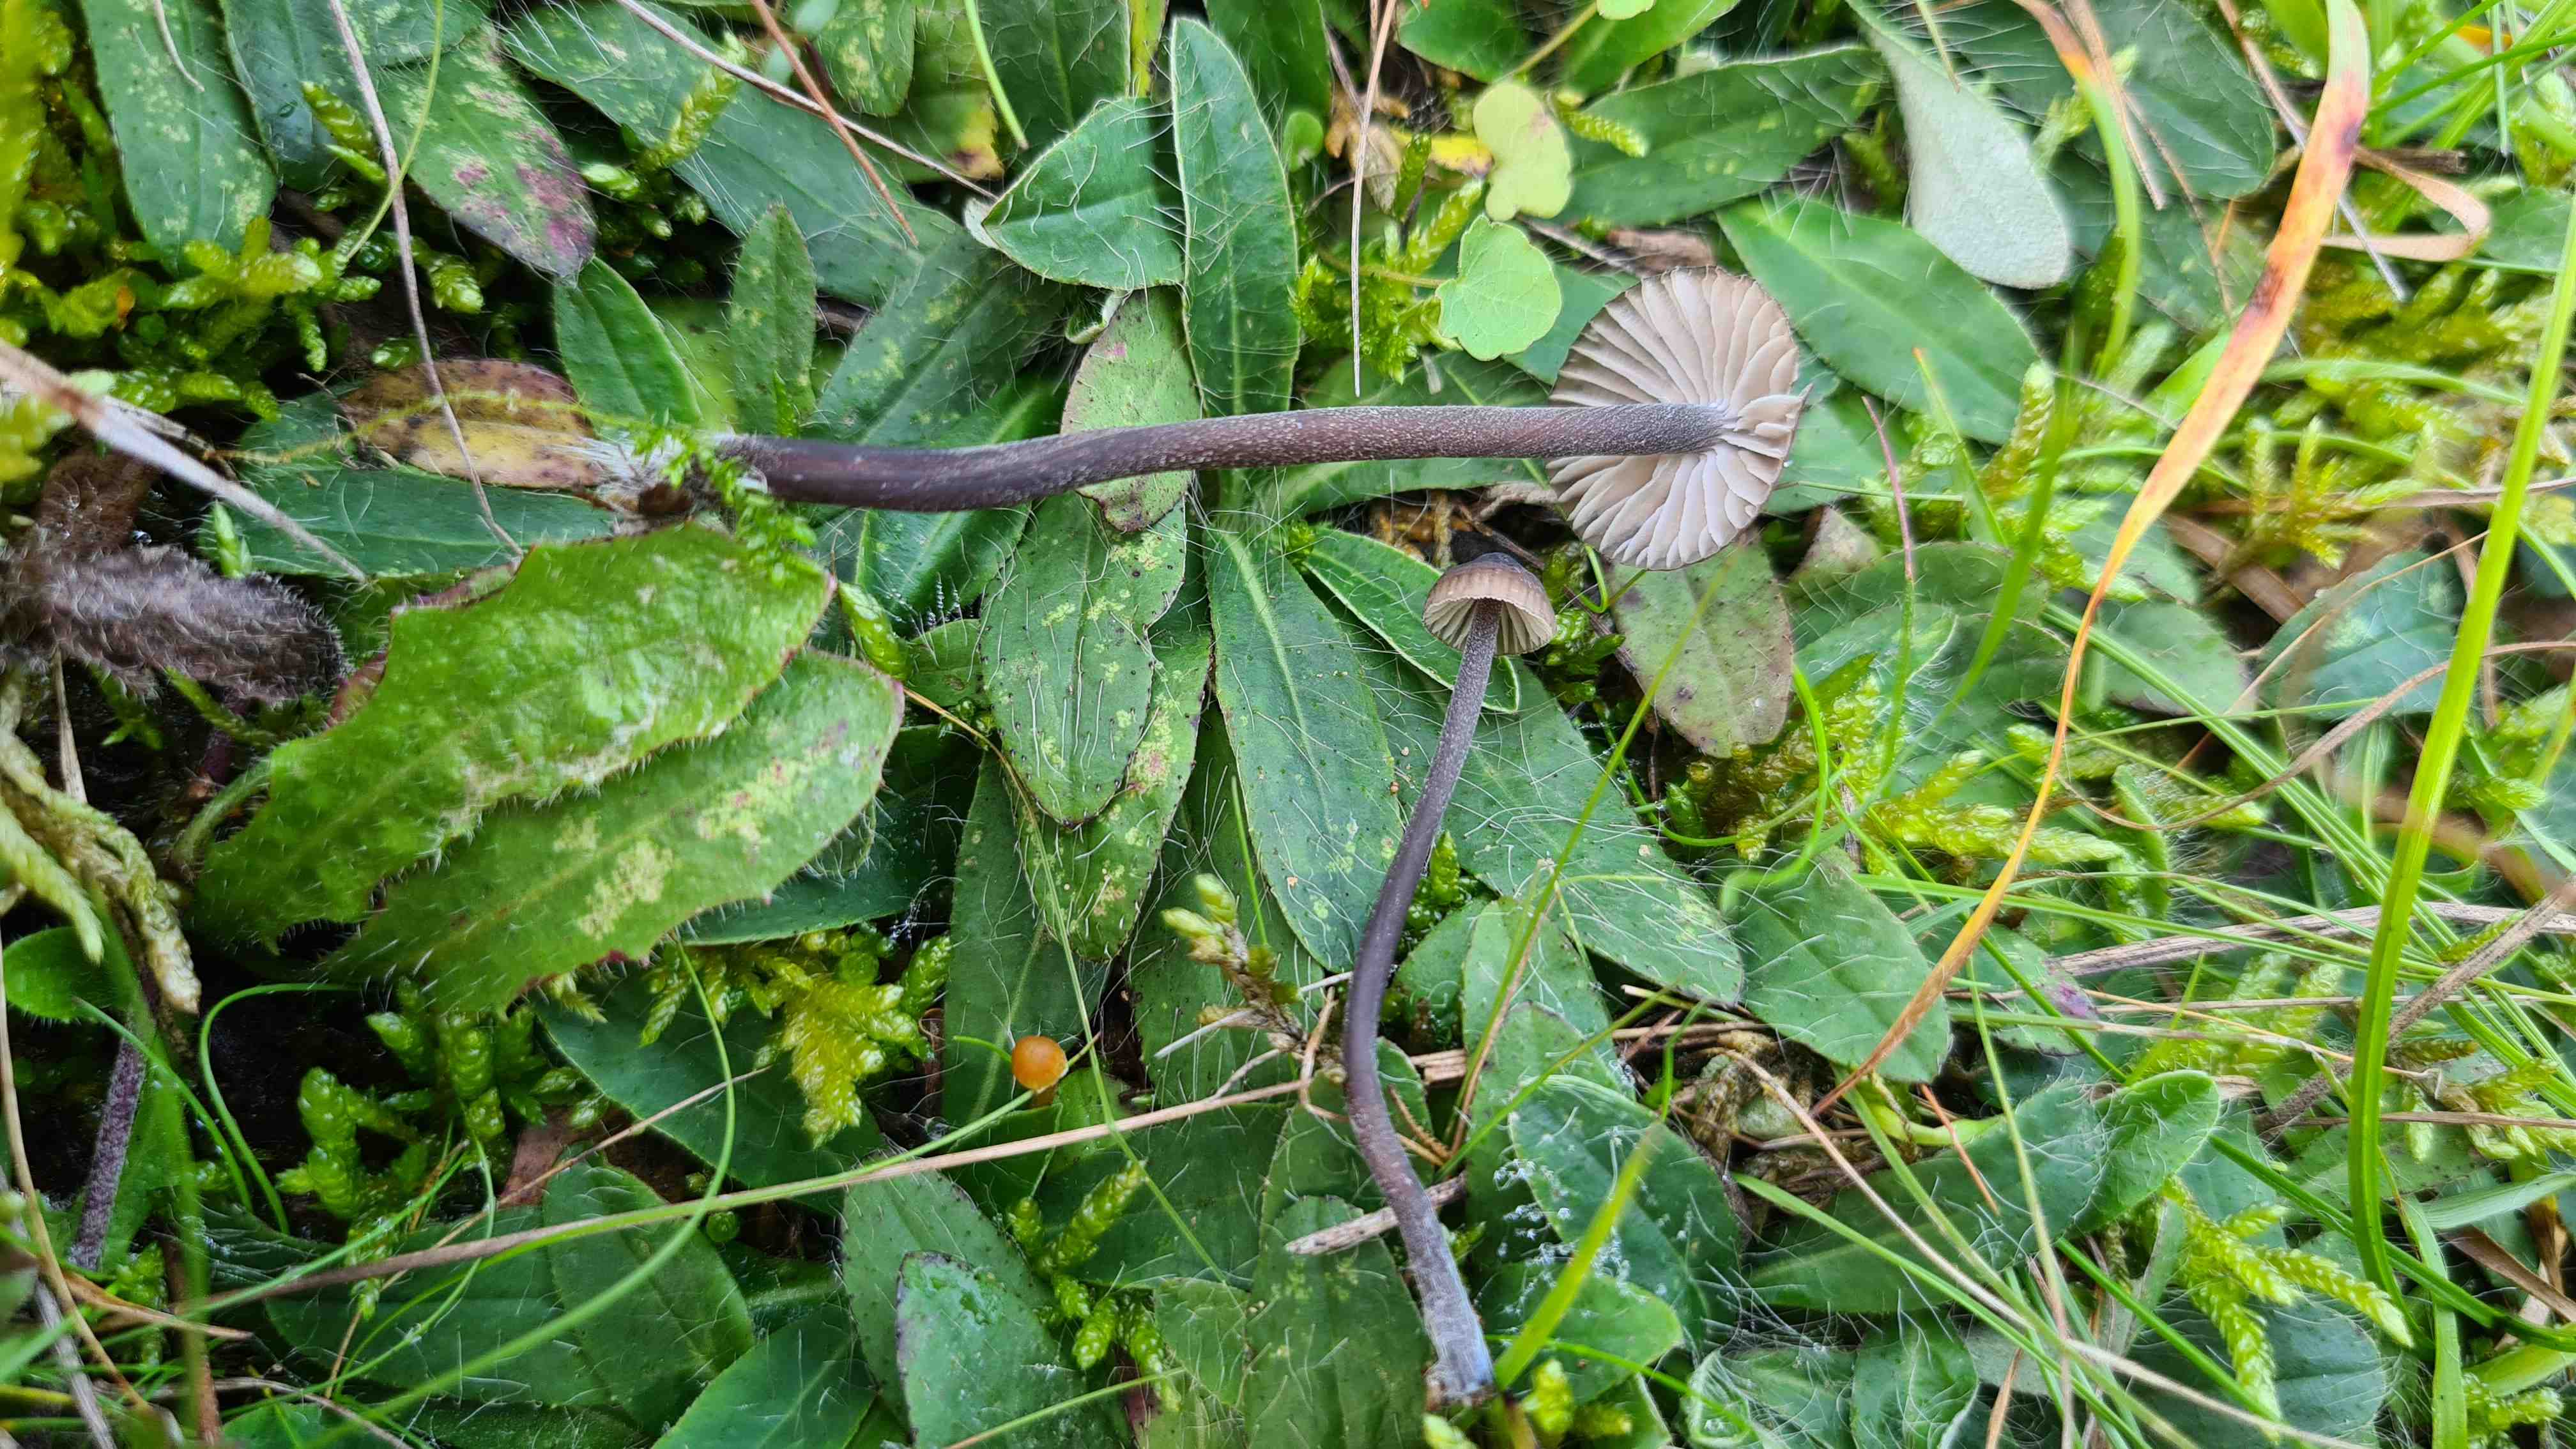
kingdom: Fungi
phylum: Basidiomycota
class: Agaricomycetes
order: Agaricales
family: Mycenaceae
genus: Mycena
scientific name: Mycena galopus
